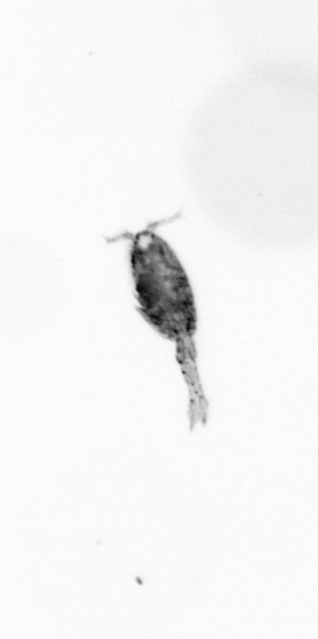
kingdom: Animalia
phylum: Arthropoda
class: Copepoda
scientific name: Copepoda
